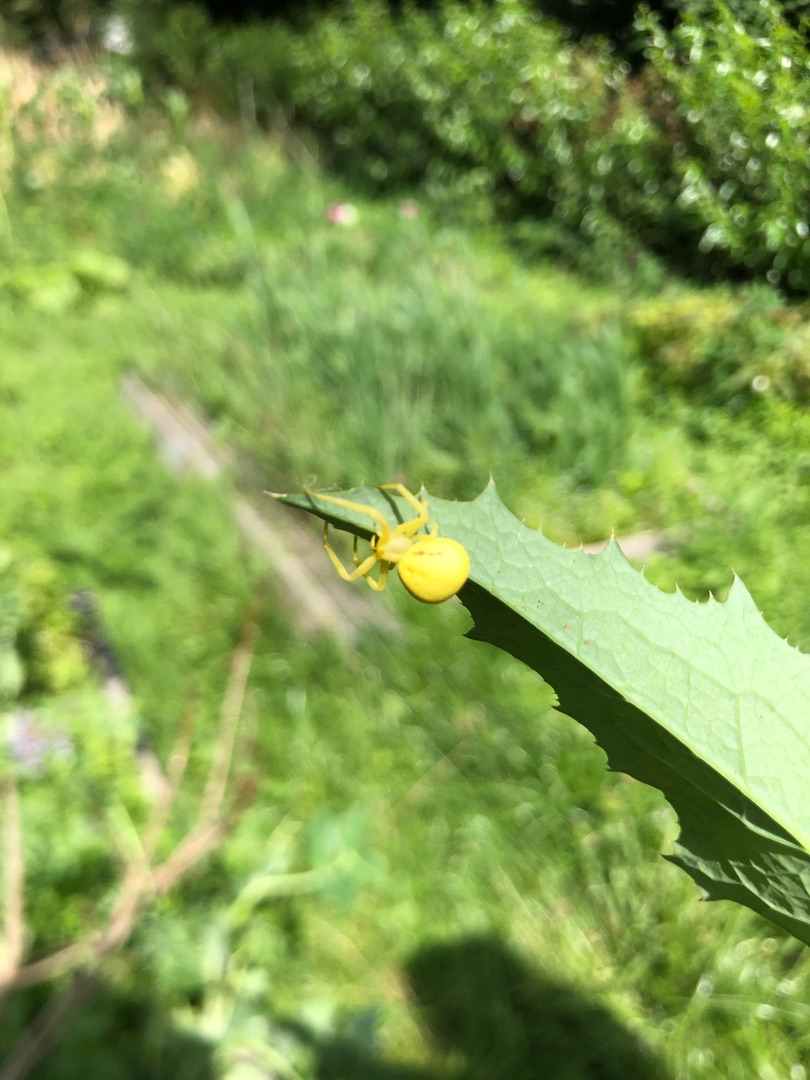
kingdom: Animalia
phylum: Arthropoda
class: Arachnida
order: Araneae
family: Thomisidae
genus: Misumena
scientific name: Misumena vatia
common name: Kamæleonedderkop
